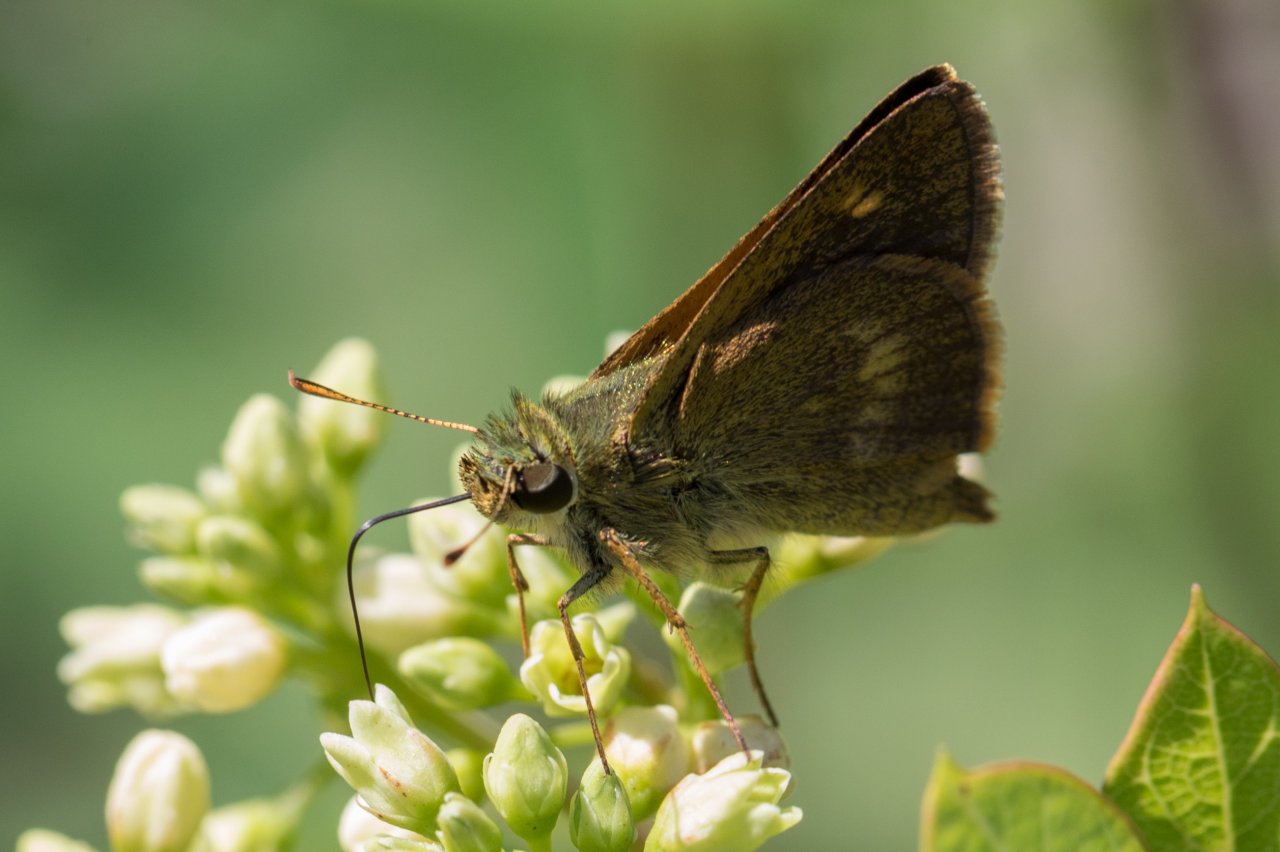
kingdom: Animalia
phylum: Arthropoda
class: Insecta
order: Lepidoptera
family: Hesperiidae
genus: Polites
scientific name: Polites egeremet
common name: Northern Broken-Dash
